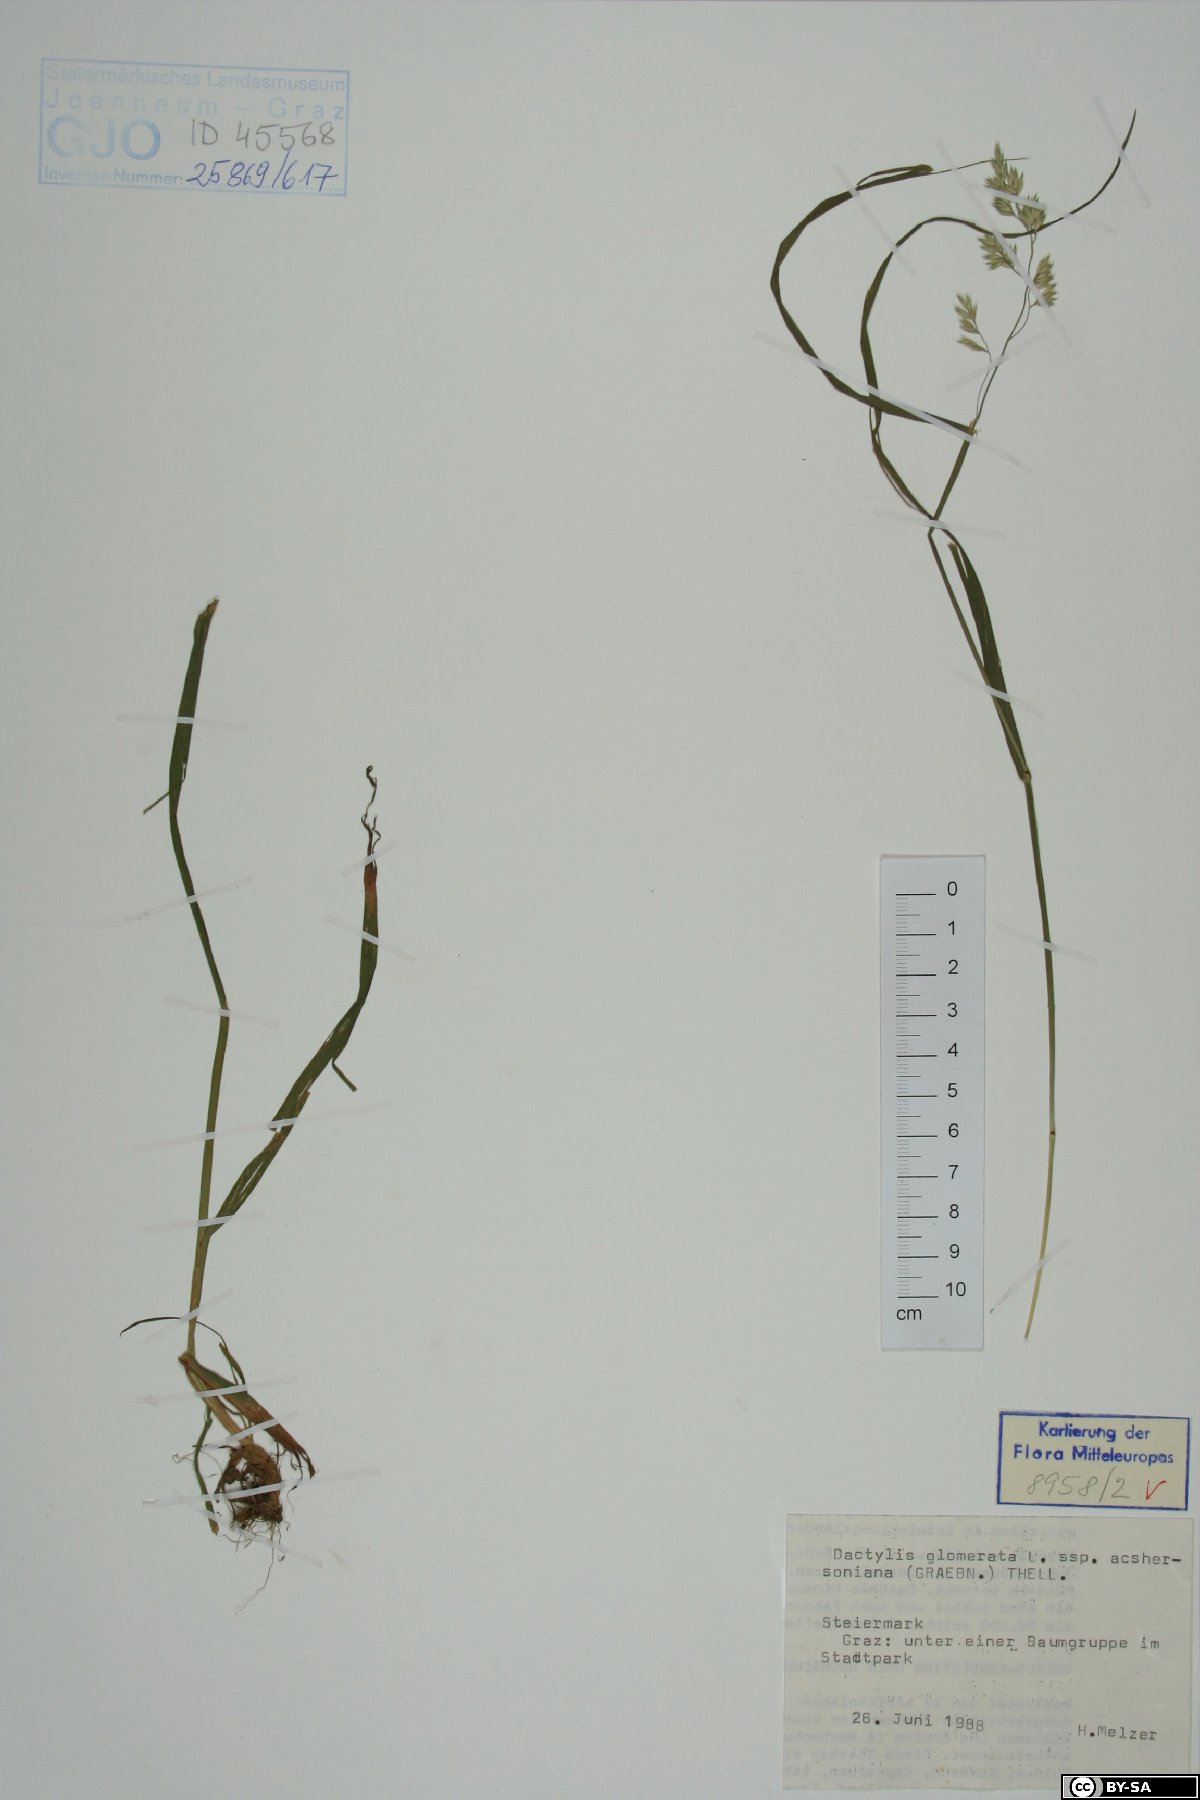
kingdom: Plantae
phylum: Tracheophyta
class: Liliopsida
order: Poales
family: Poaceae
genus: Dactylis
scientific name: Dactylis glomerata
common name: Orchardgrass
